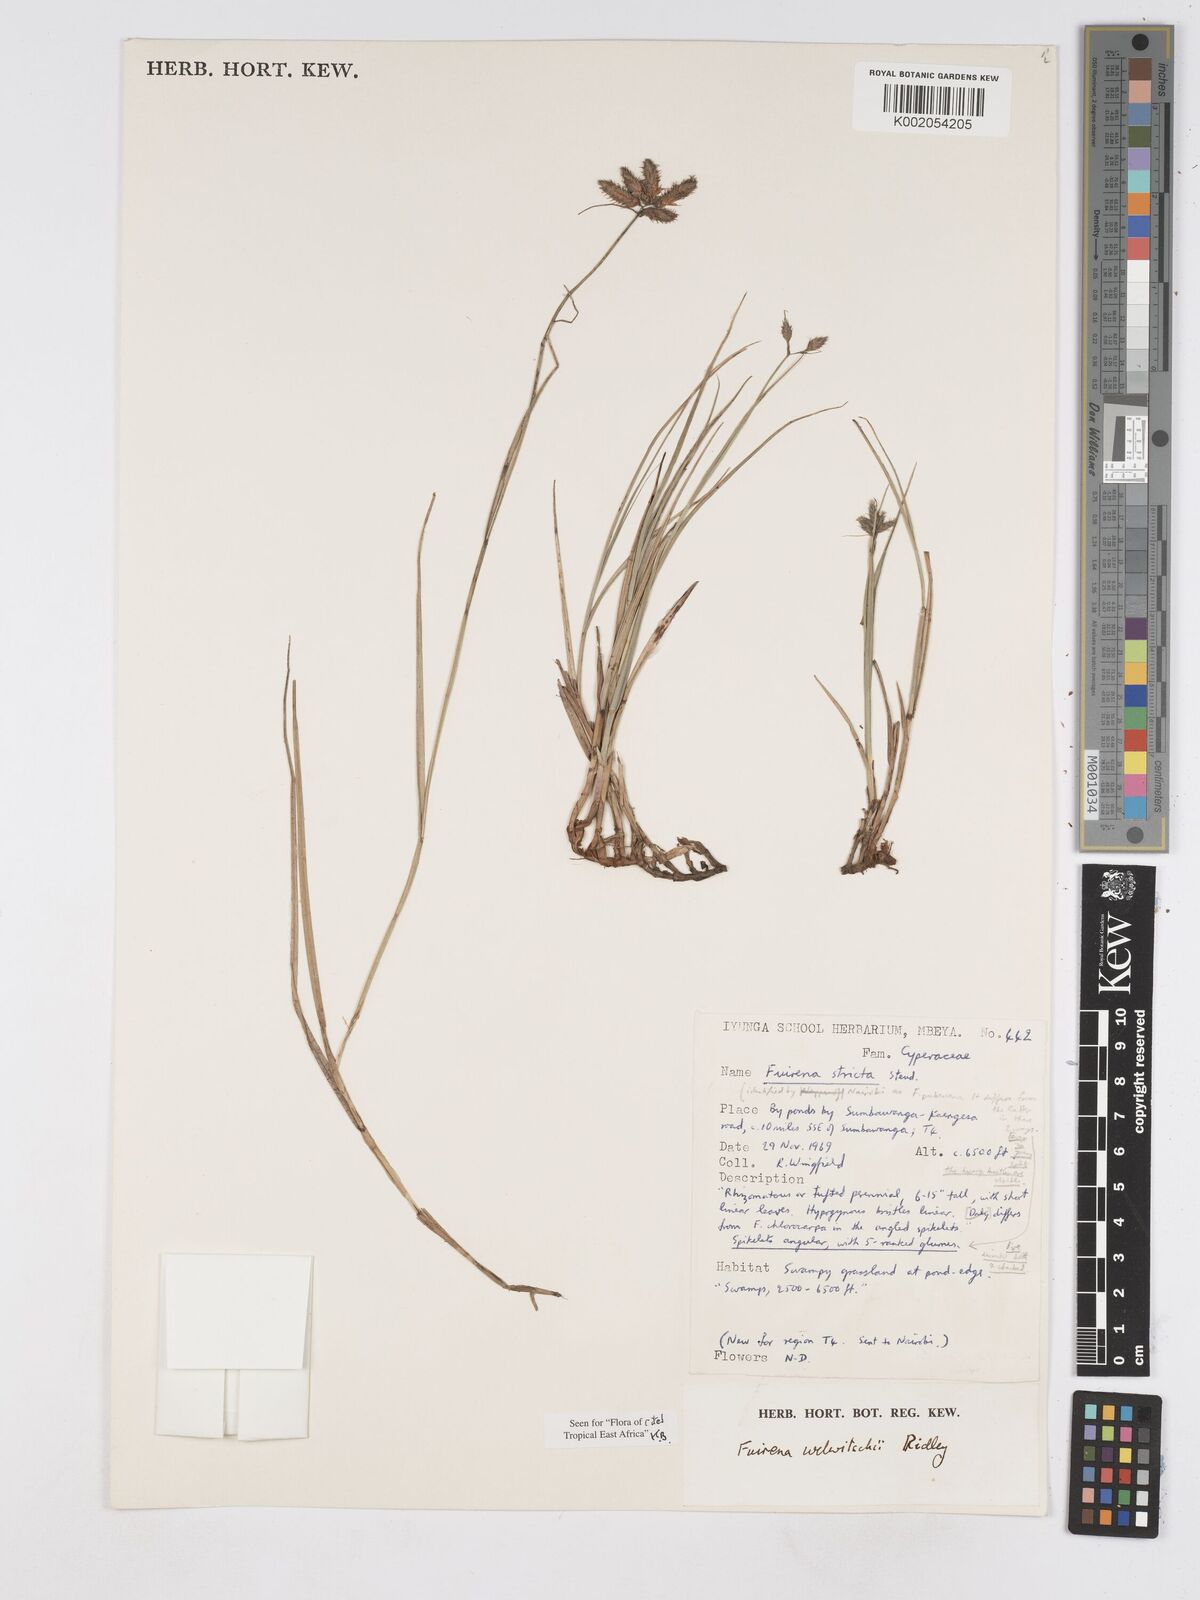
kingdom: Plantae
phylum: Tracheophyta
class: Liliopsida
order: Poales
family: Cyperaceae
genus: Fuirena
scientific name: Fuirena welwitschii
